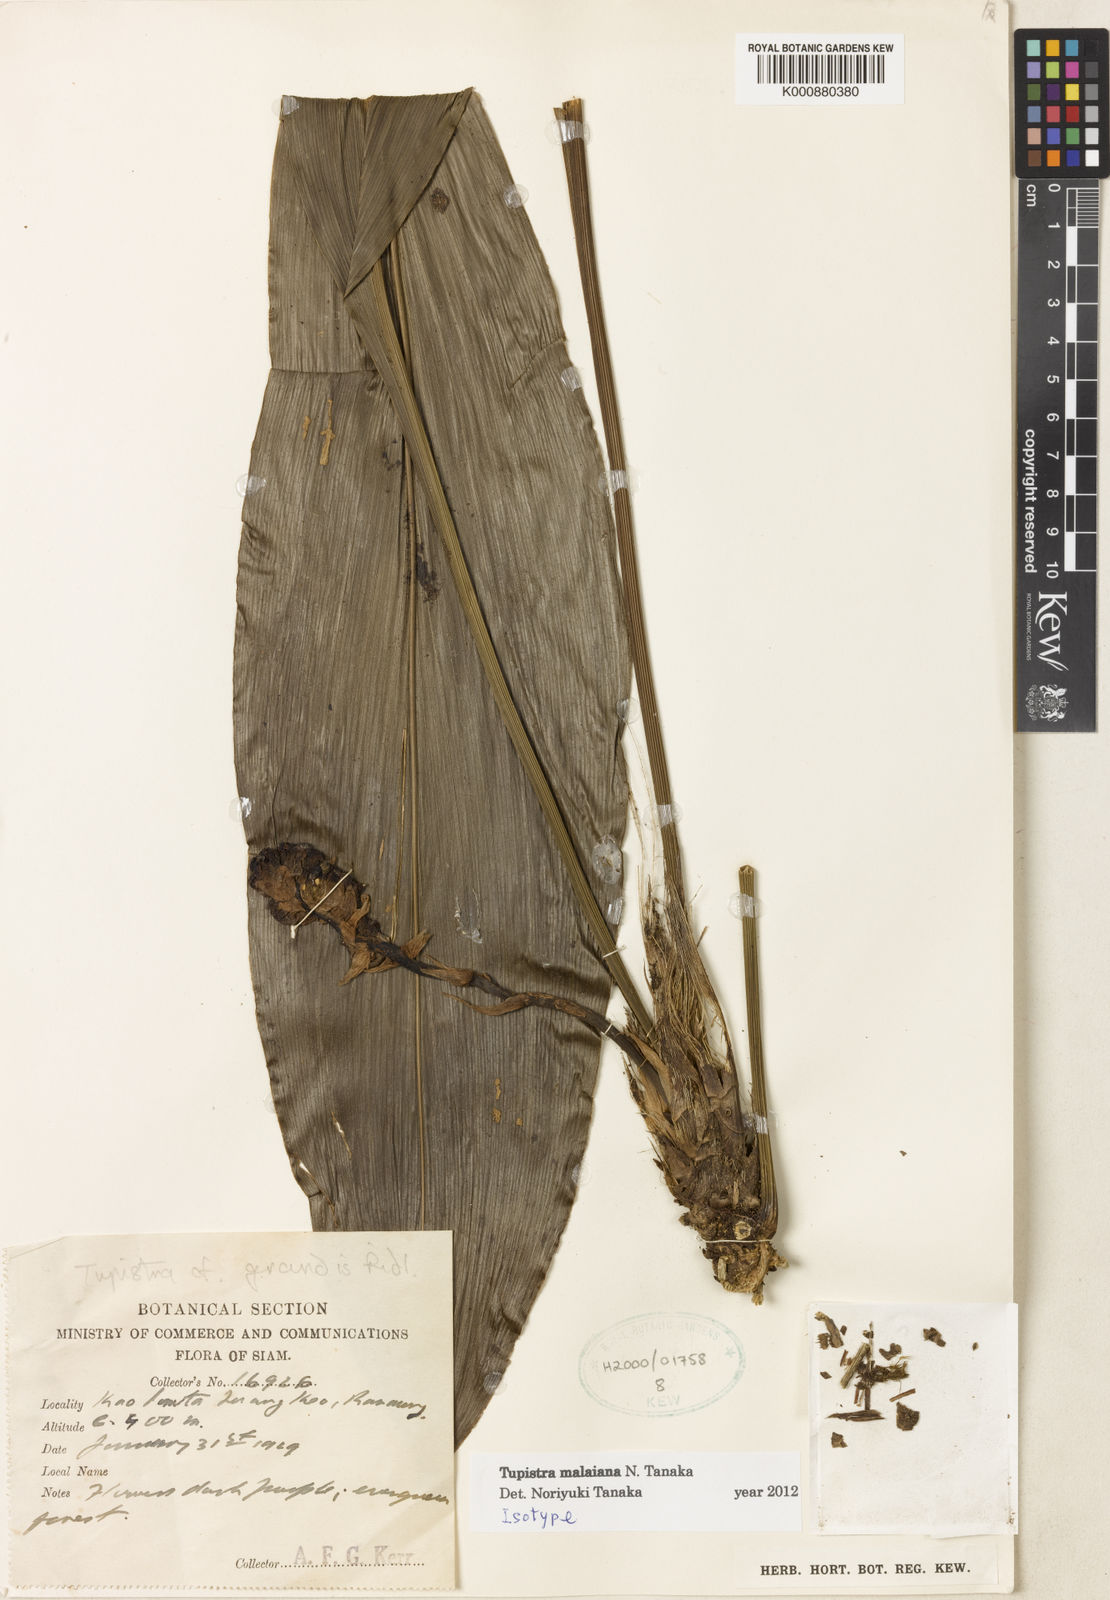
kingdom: Plantae
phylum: Tracheophyta
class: Liliopsida
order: Asparagales
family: Asparagaceae
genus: Tupistra
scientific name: Tupistra malaiana
